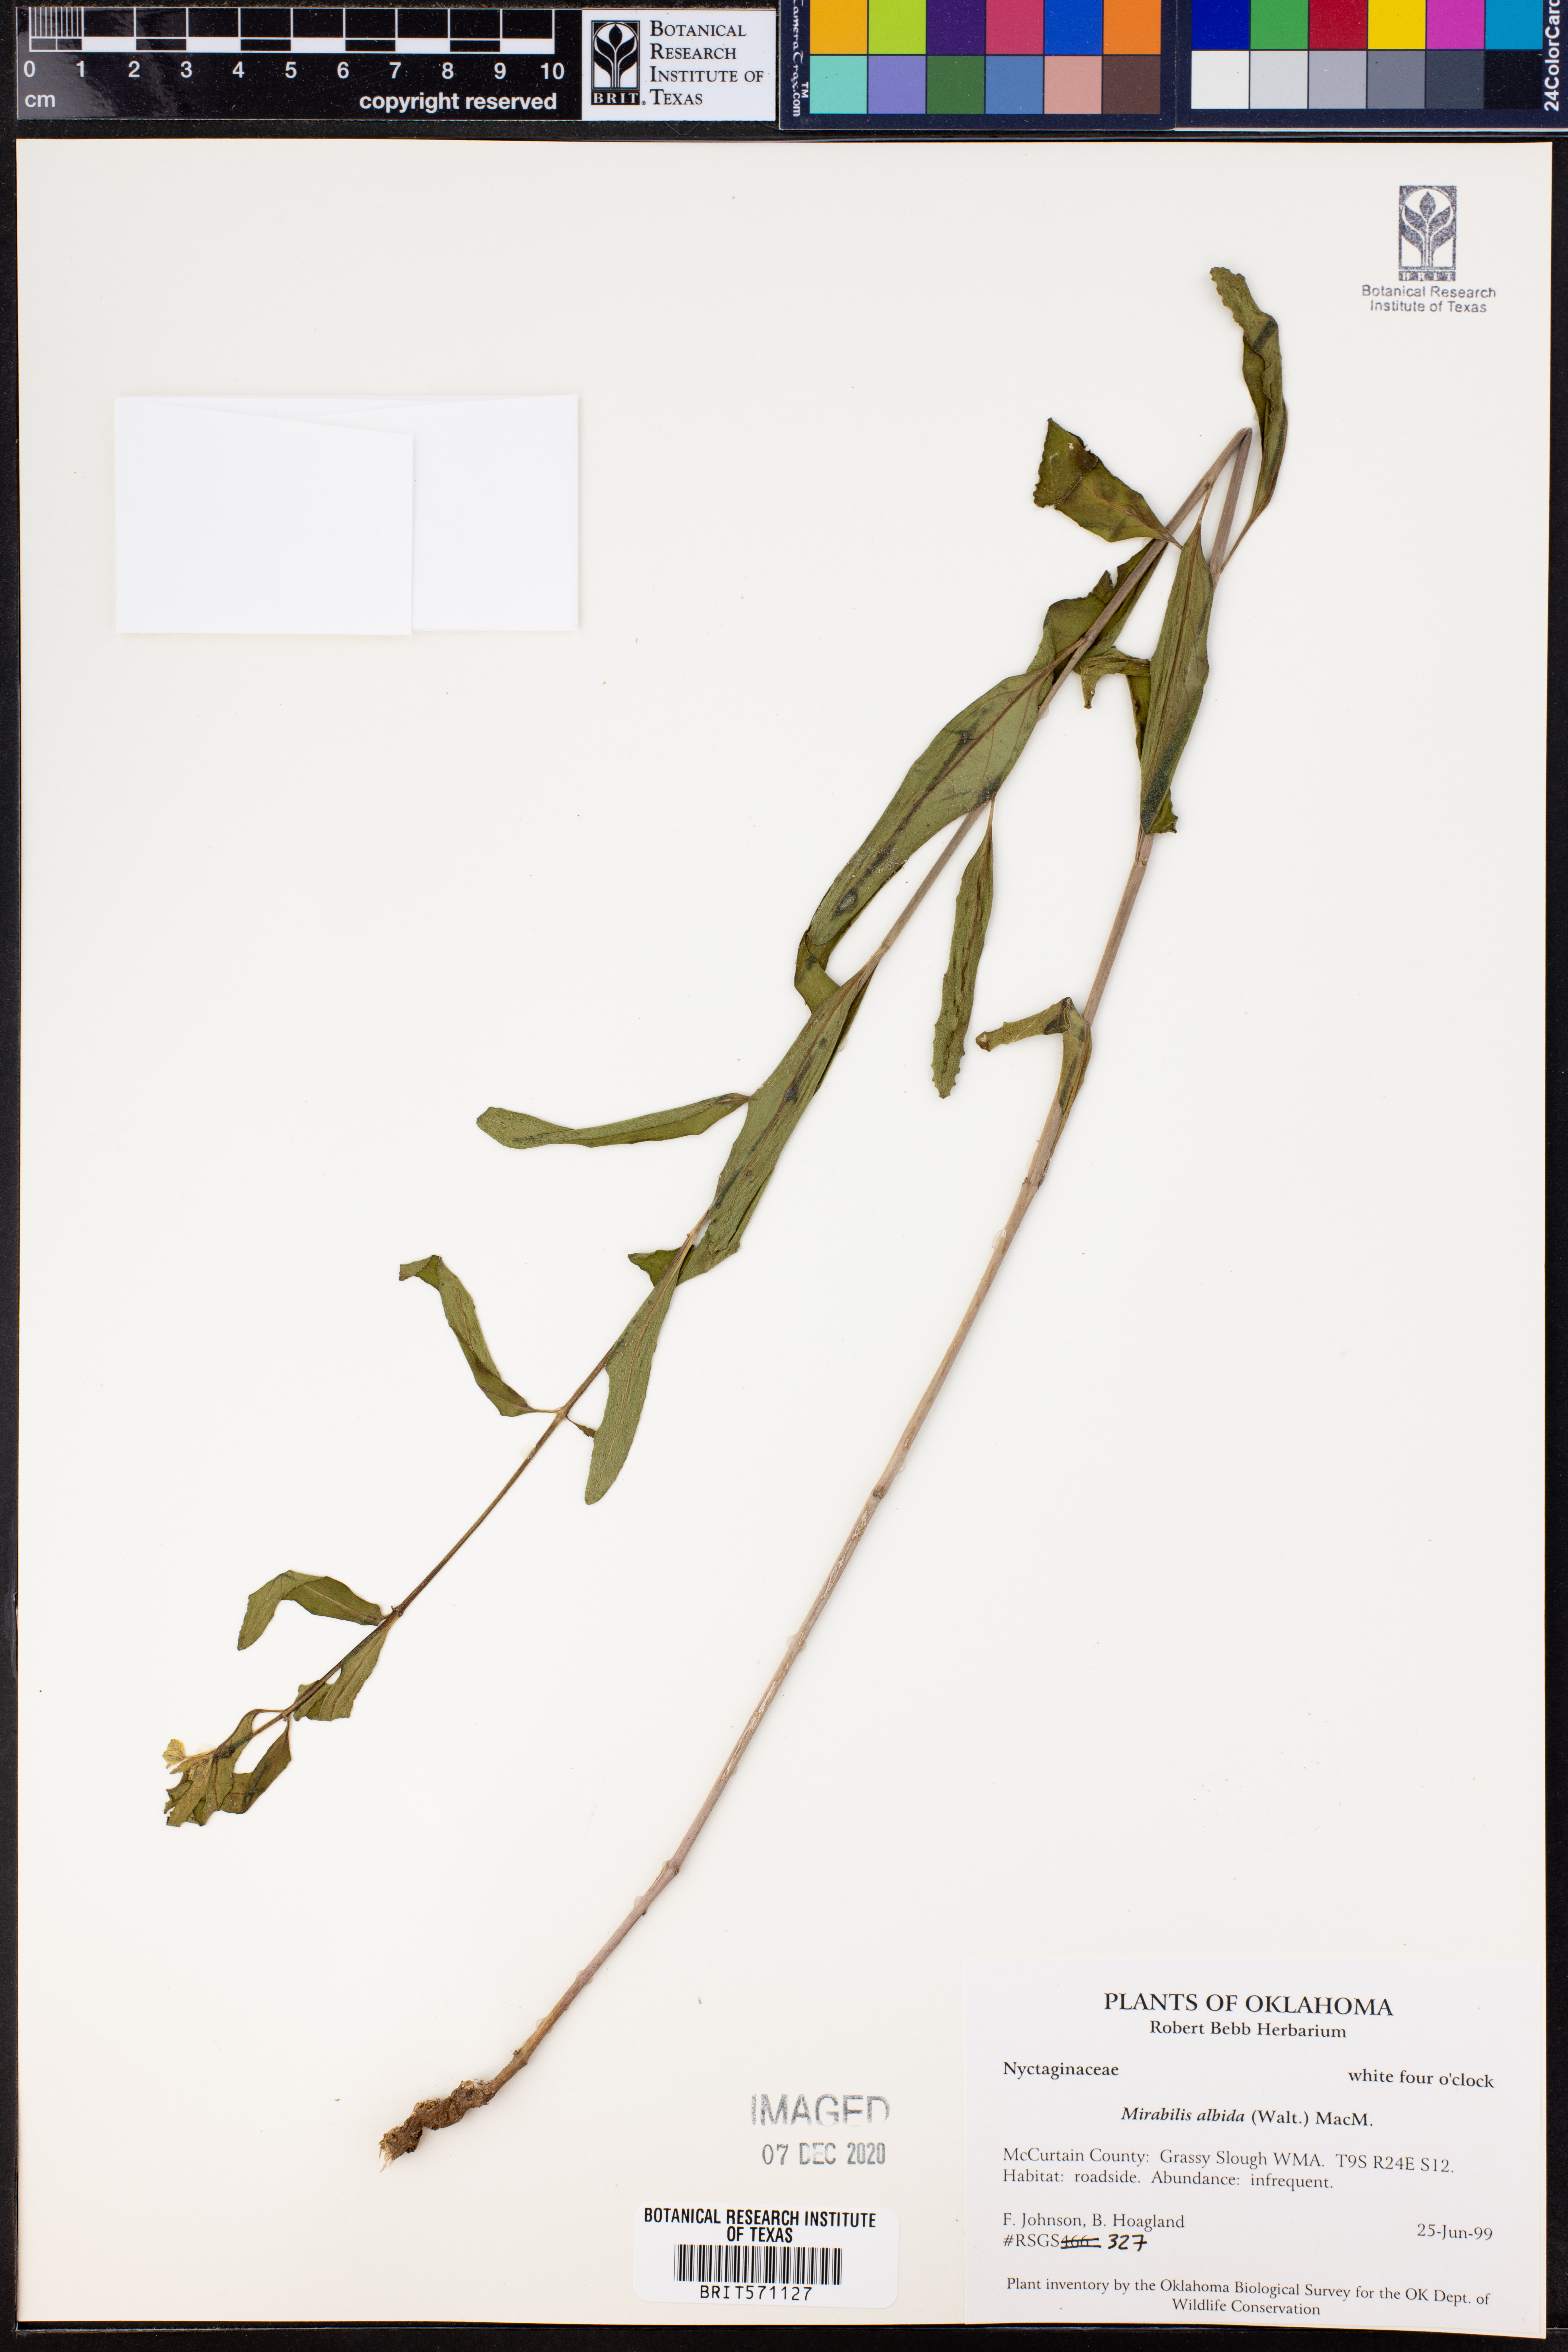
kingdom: Plantae
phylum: Tracheophyta
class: Magnoliopsida
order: Caryophyllales
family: Nyctaginaceae
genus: Mirabilis
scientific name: Mirabilis albida
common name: Hairy four-o'clock
